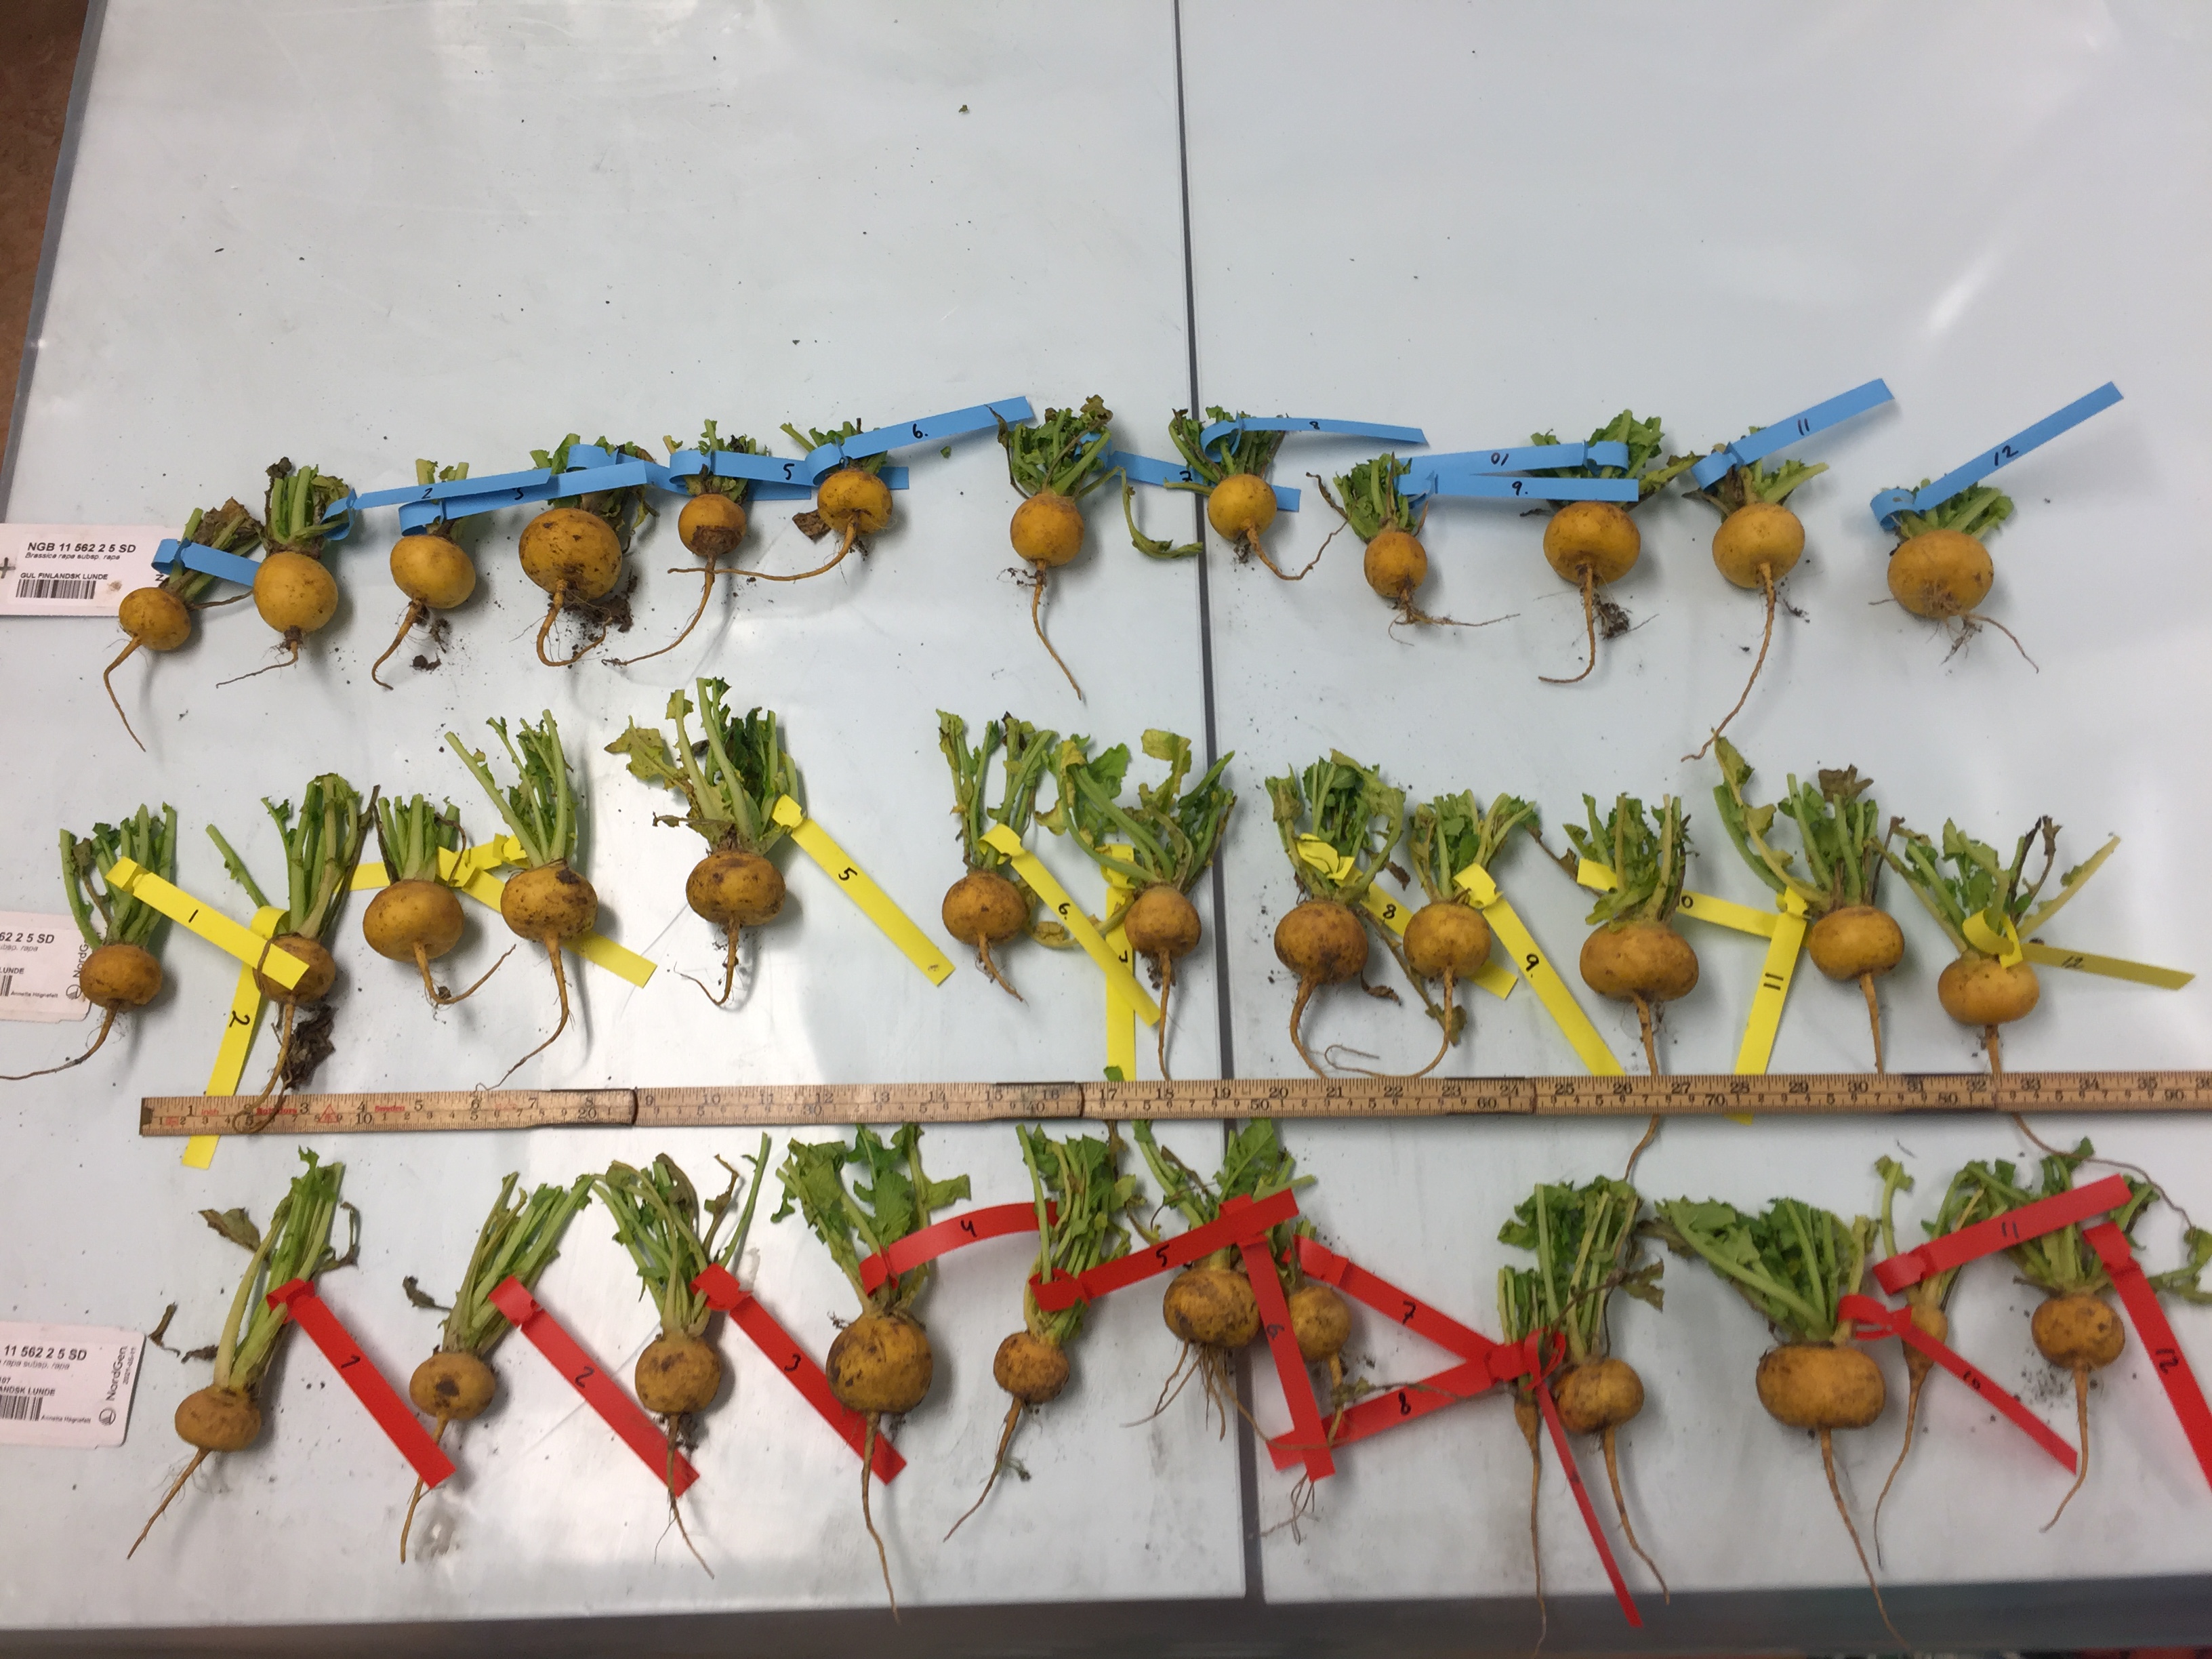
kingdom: Plantae
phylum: Tracheophyta
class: Magnoliopsida
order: Brassicales
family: Brassicaceae
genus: Brassica
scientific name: Brassica rapa
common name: Field mustard
